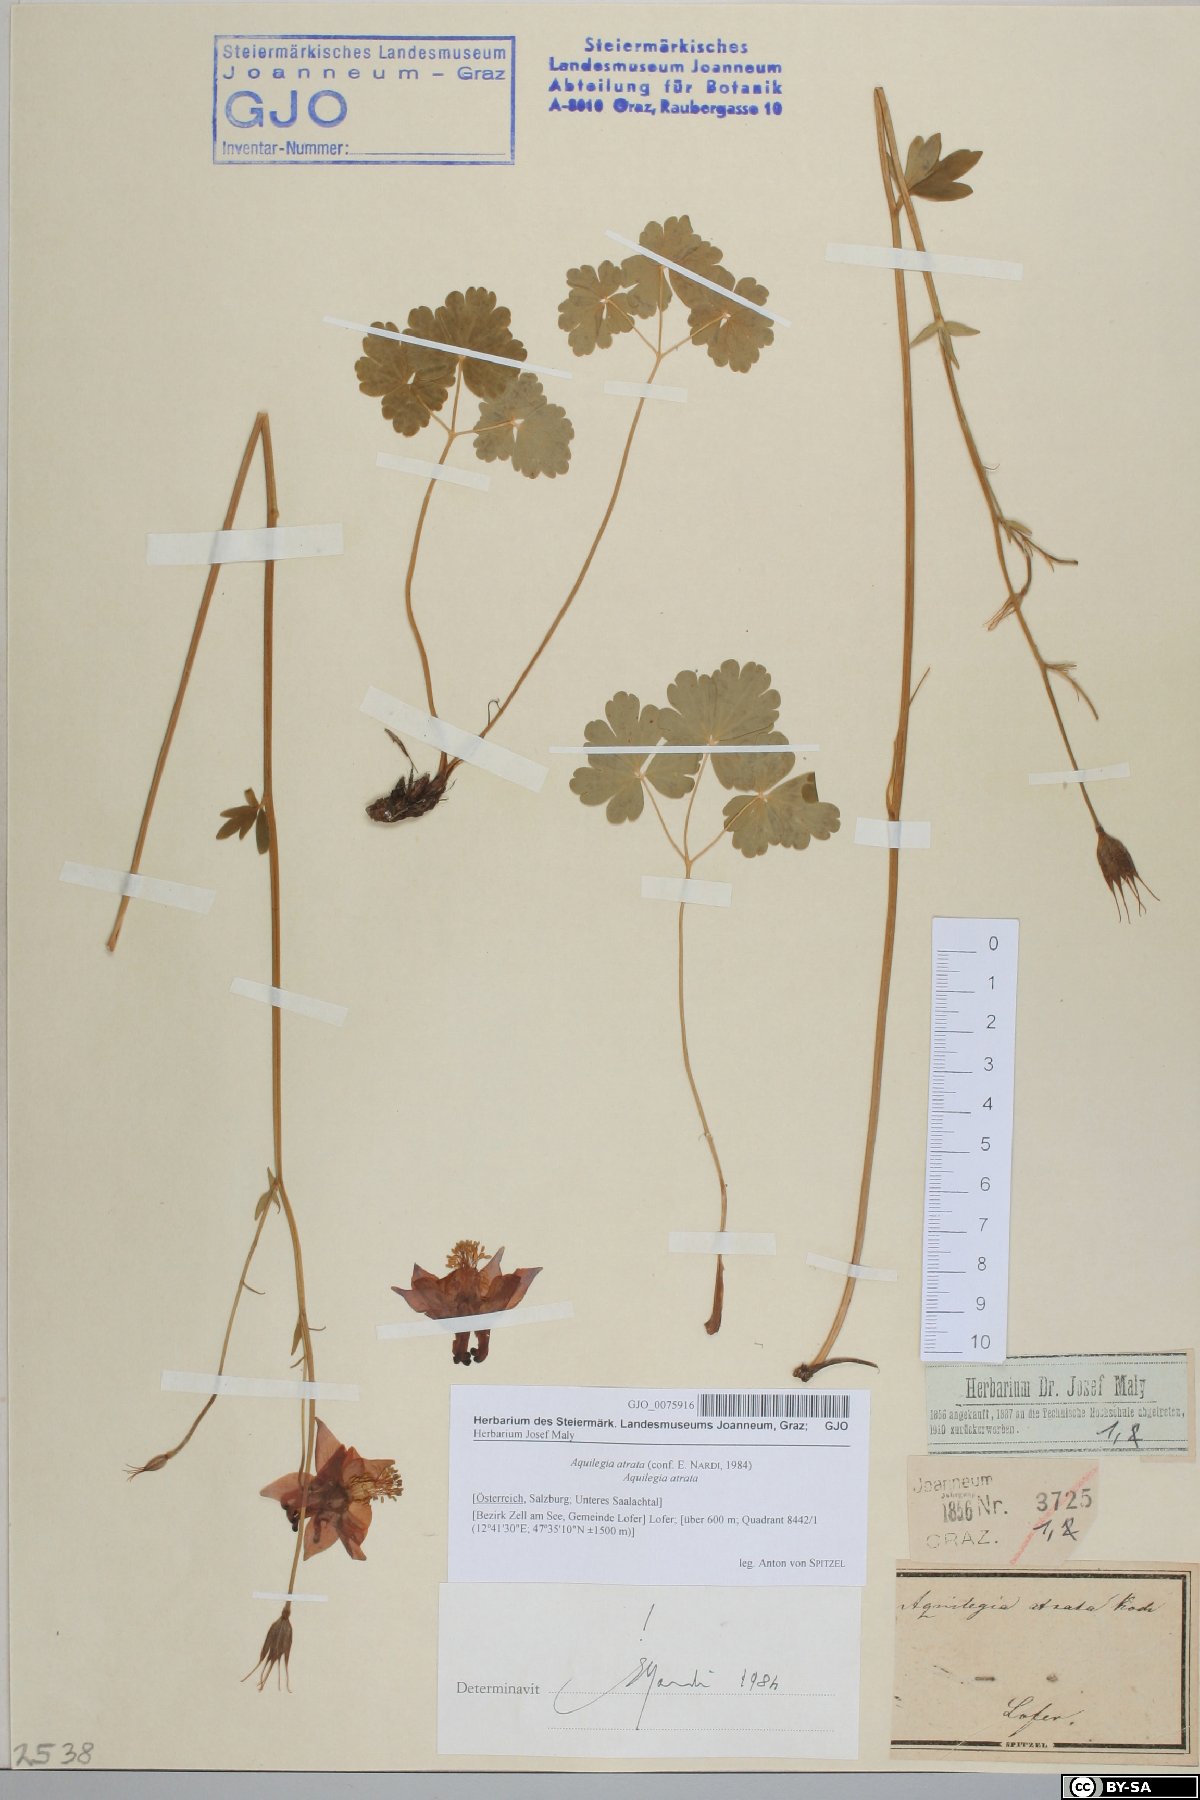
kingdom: Plantae
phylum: Tracheophyta
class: Magnoliopsida
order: Ranunculales
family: Ranunculaceae
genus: Aquilegia
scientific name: Aquilegia atrata
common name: Dark columbine
